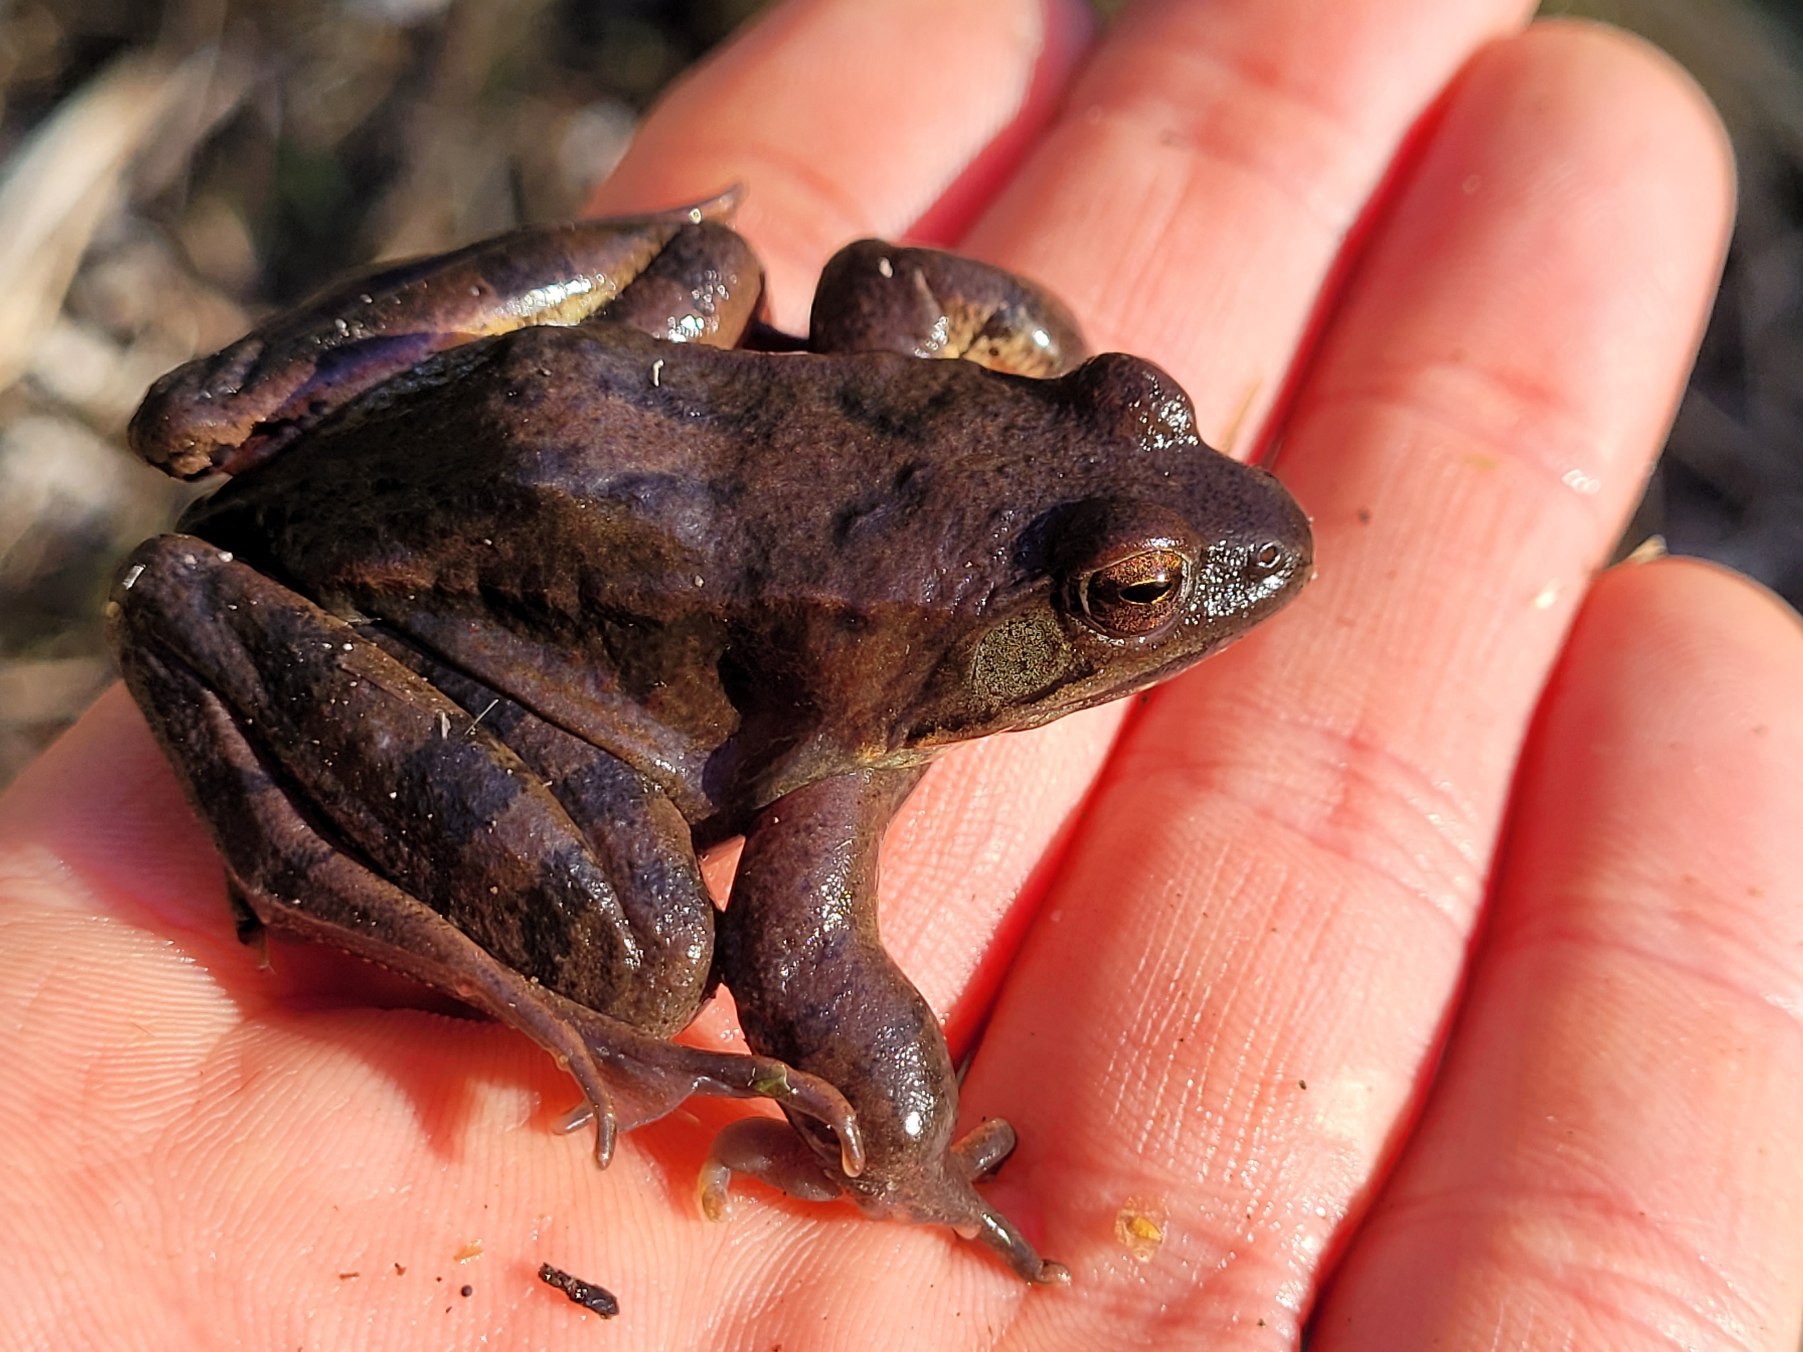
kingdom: Animalia
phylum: Chordata
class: Amphibia
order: Anura
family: Ranidae
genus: Rana
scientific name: Rana dalmatina
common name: Springfrø
